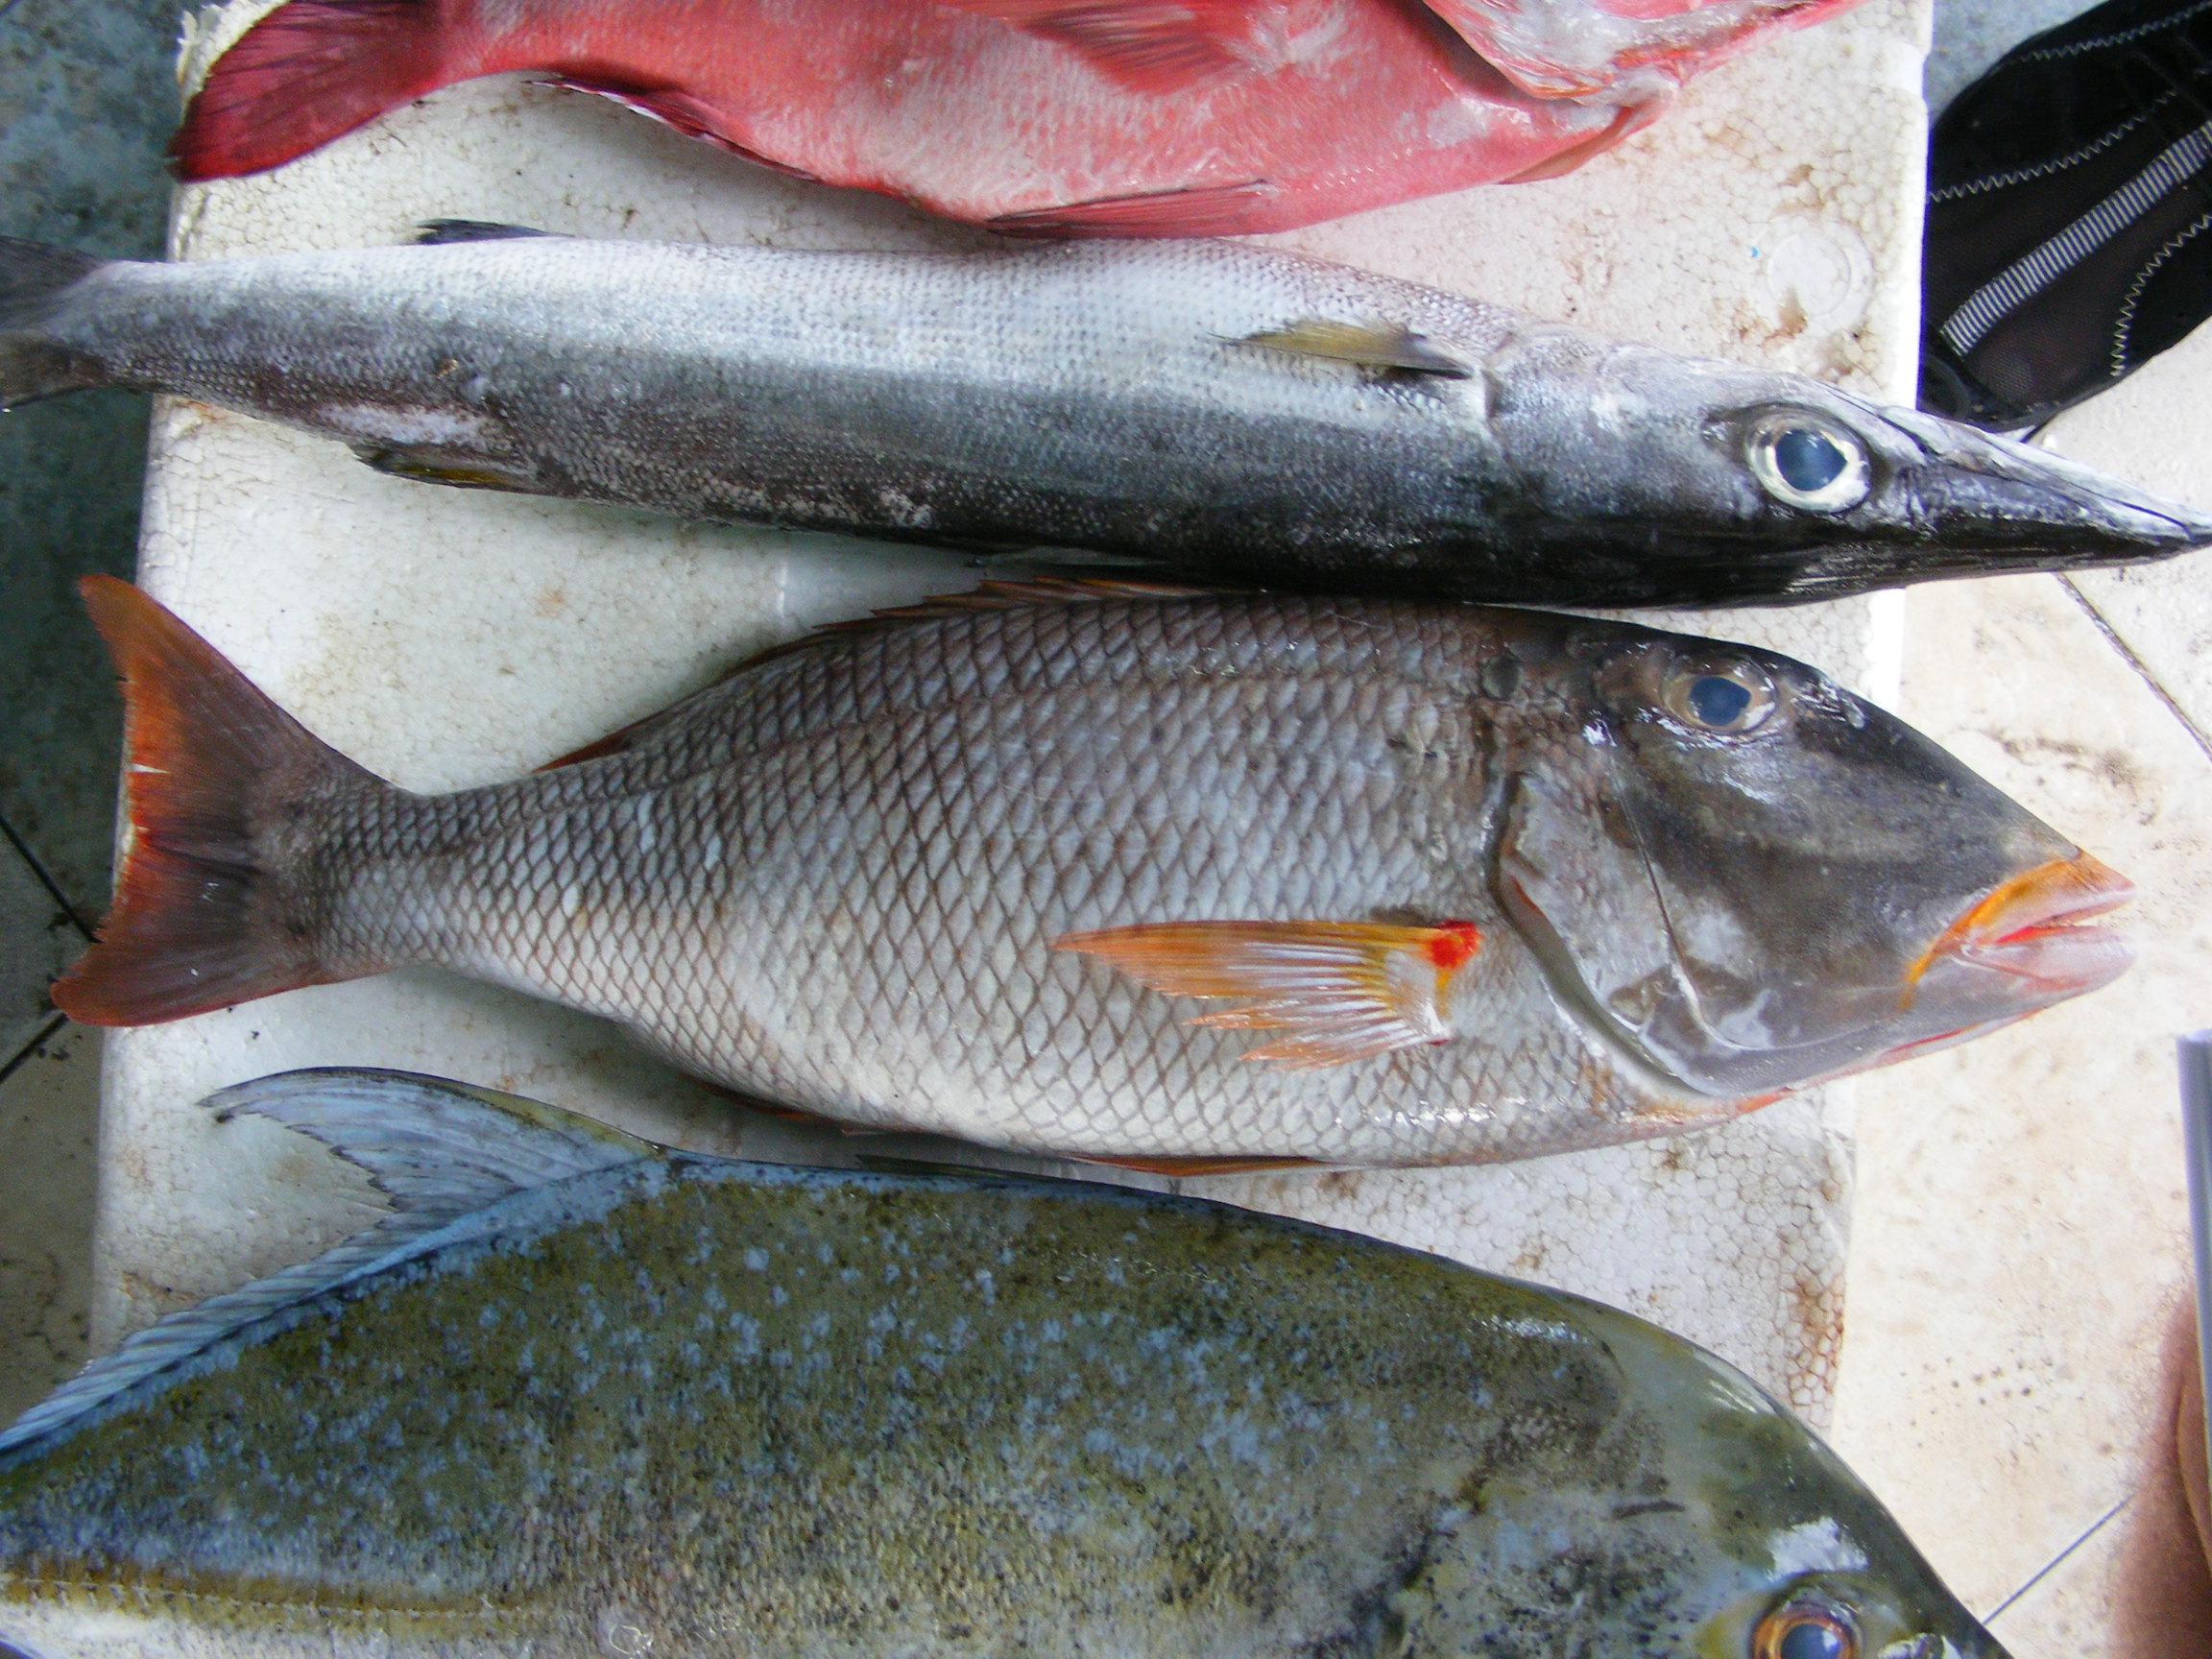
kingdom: Animalia
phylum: Chordata
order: Perciformes
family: Lethrinidae
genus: Lethrinus
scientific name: Lethrinus rubrioperculatus
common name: Spotcheek emperor
